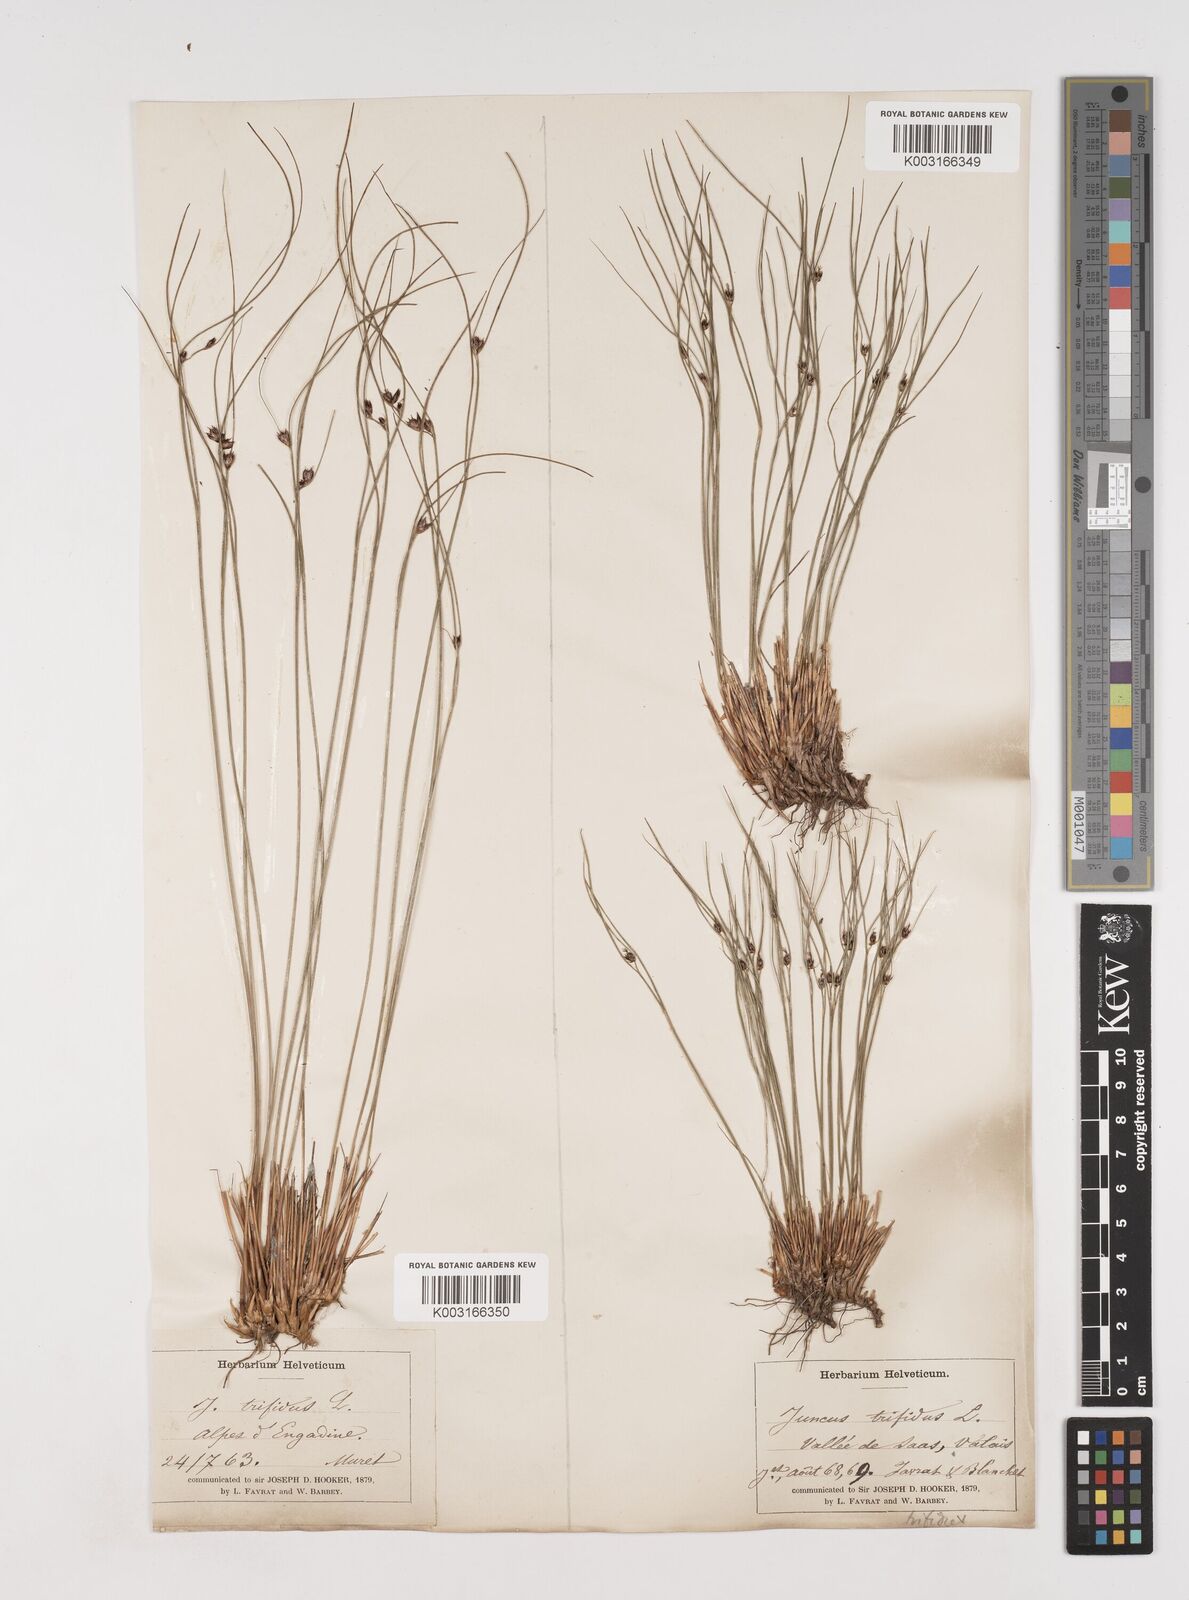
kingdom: Plantae
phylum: Tracheophyta
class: Liliopsida
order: Poales
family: Juncaceae
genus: Oreojuncus
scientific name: Oreojuncus trifidus
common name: Highland rush
